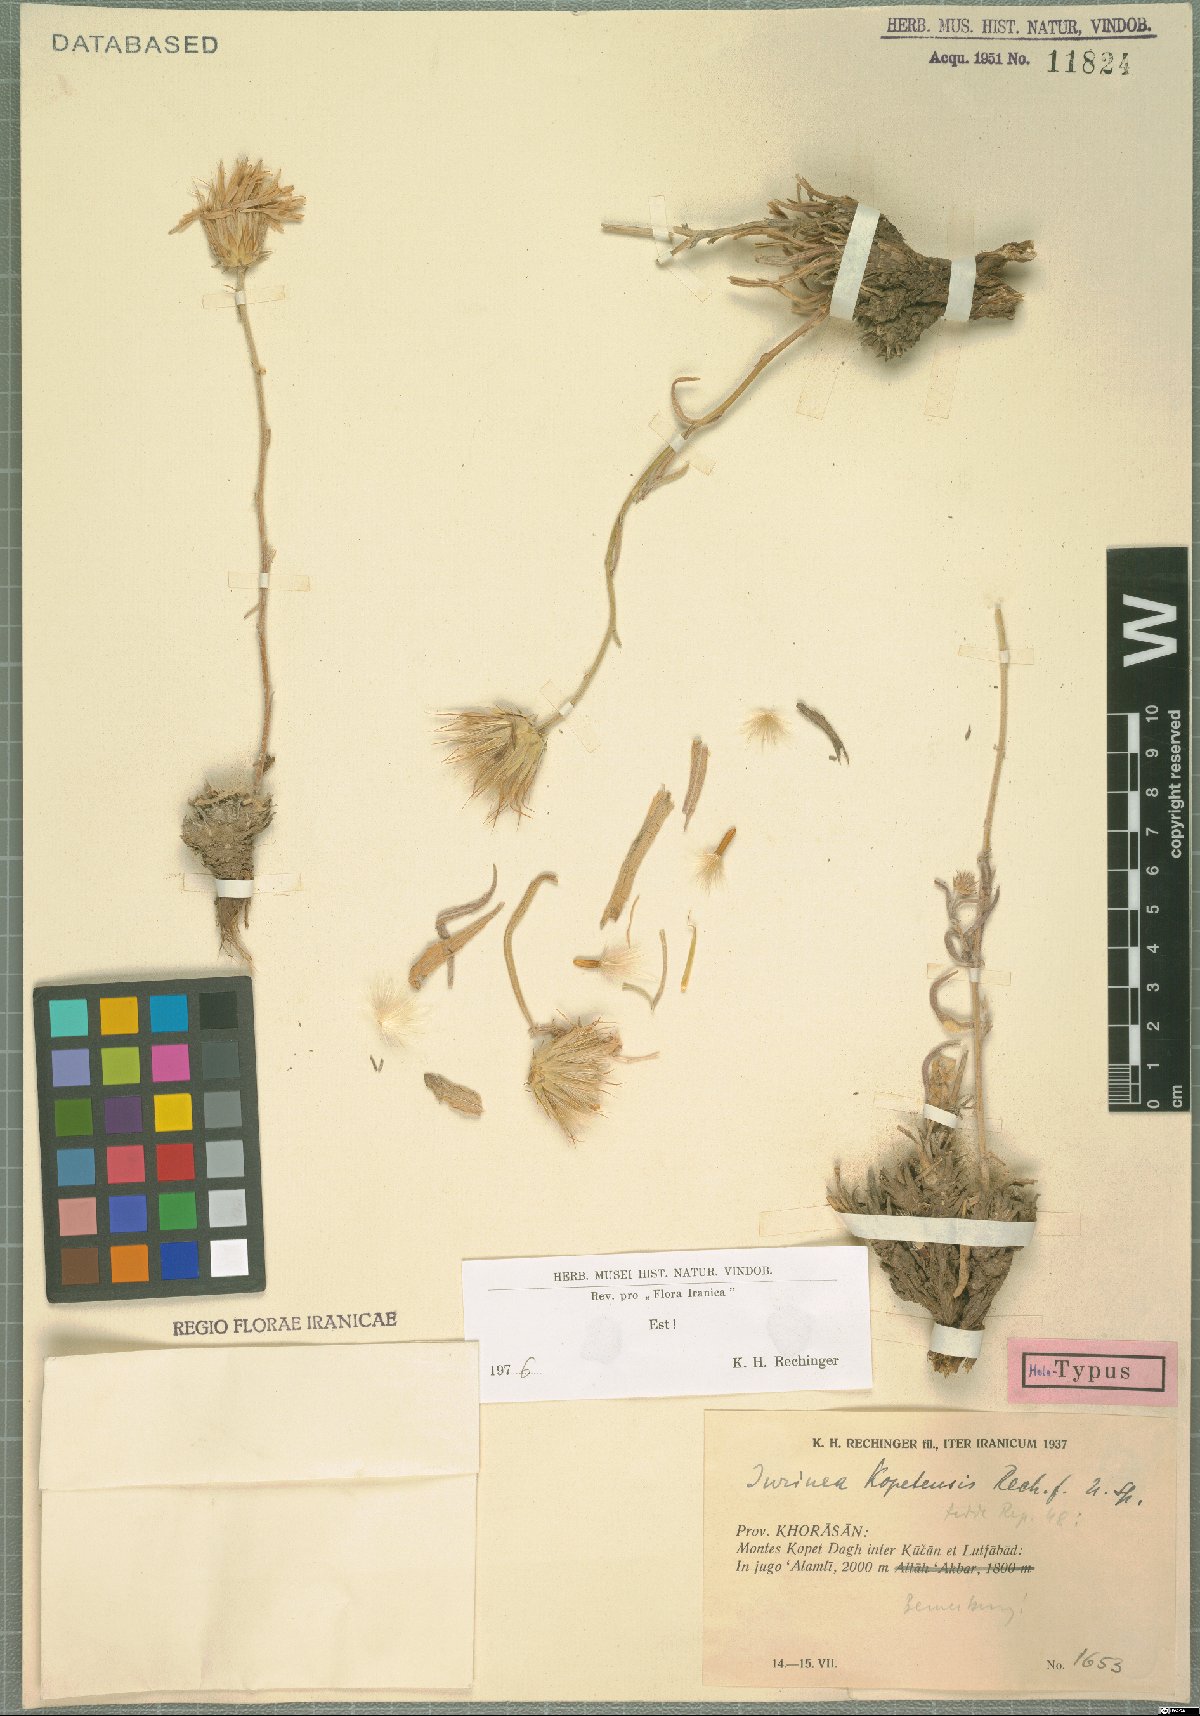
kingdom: Plantae
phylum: Tracheophyta
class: Magnoliopsida
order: Asterales
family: Asteraceae
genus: Jurinea
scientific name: Jurinea kopetensis
